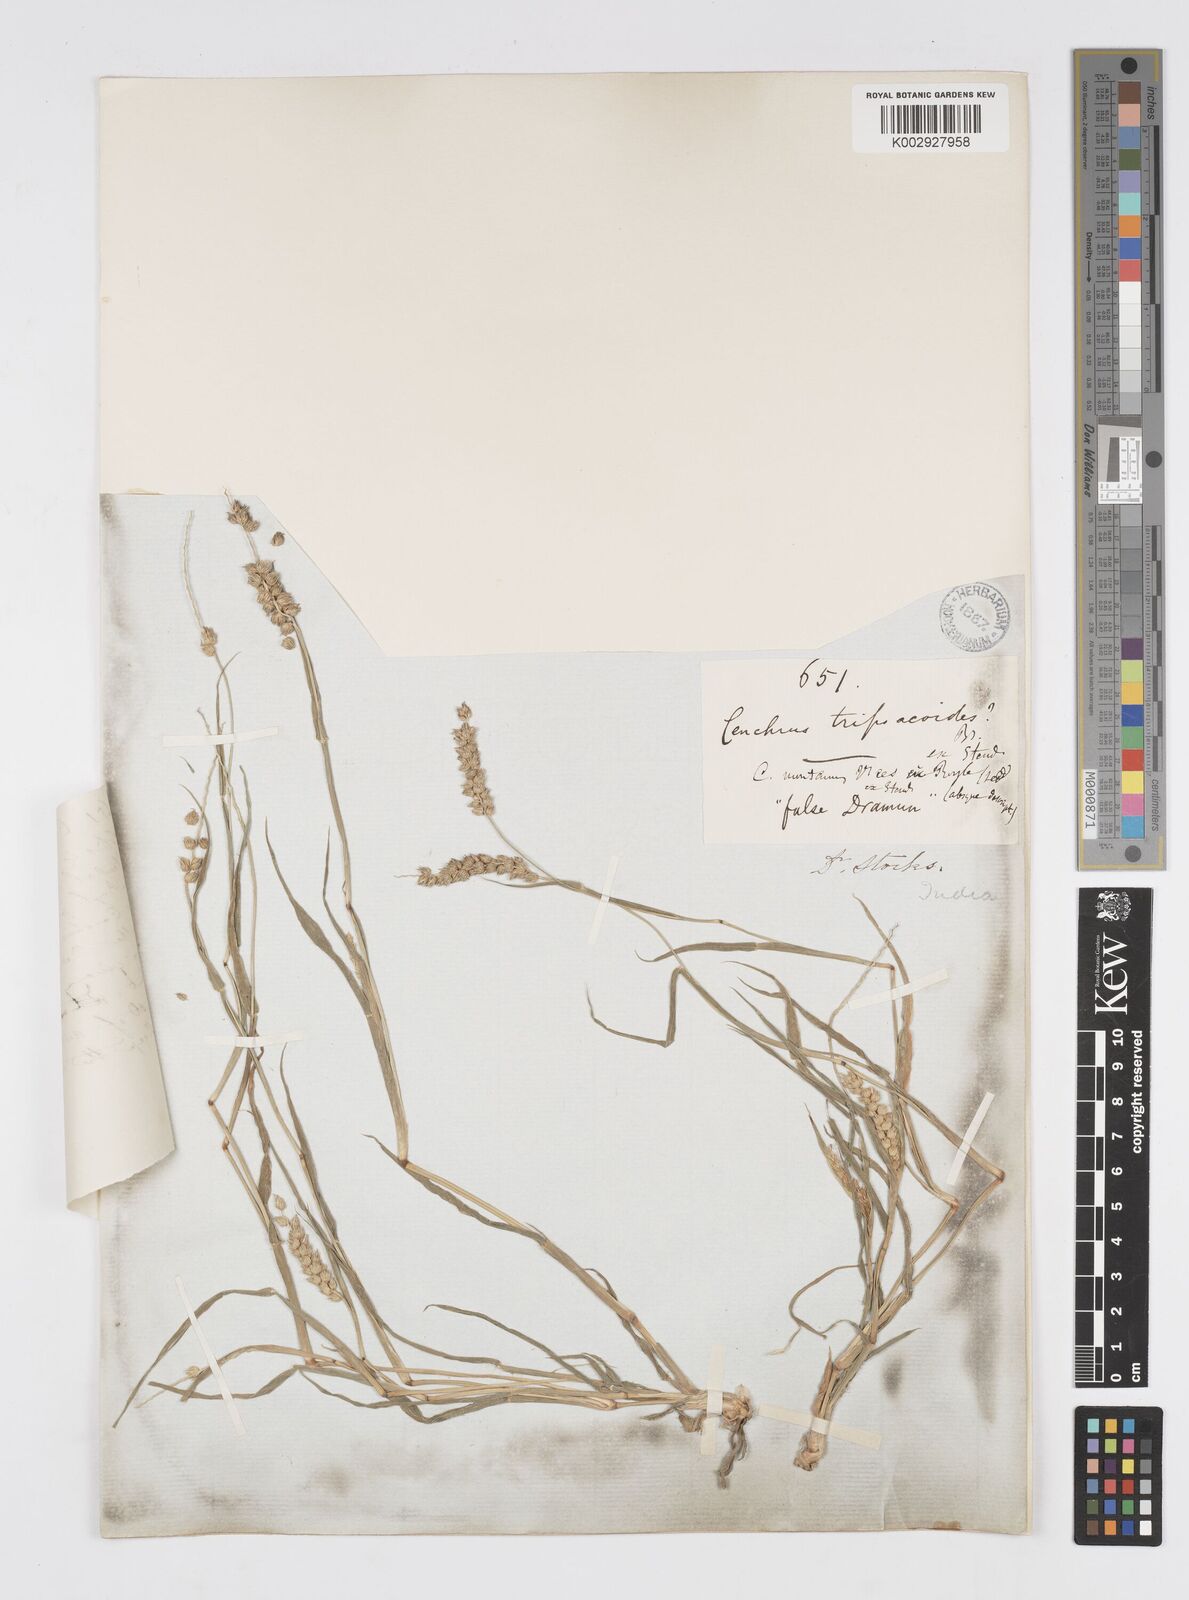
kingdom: Plantae
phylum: Tracheophyta
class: Liliopsida
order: Poales
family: Poaceae
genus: Cenchrus
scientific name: Cenchrus setigerus
